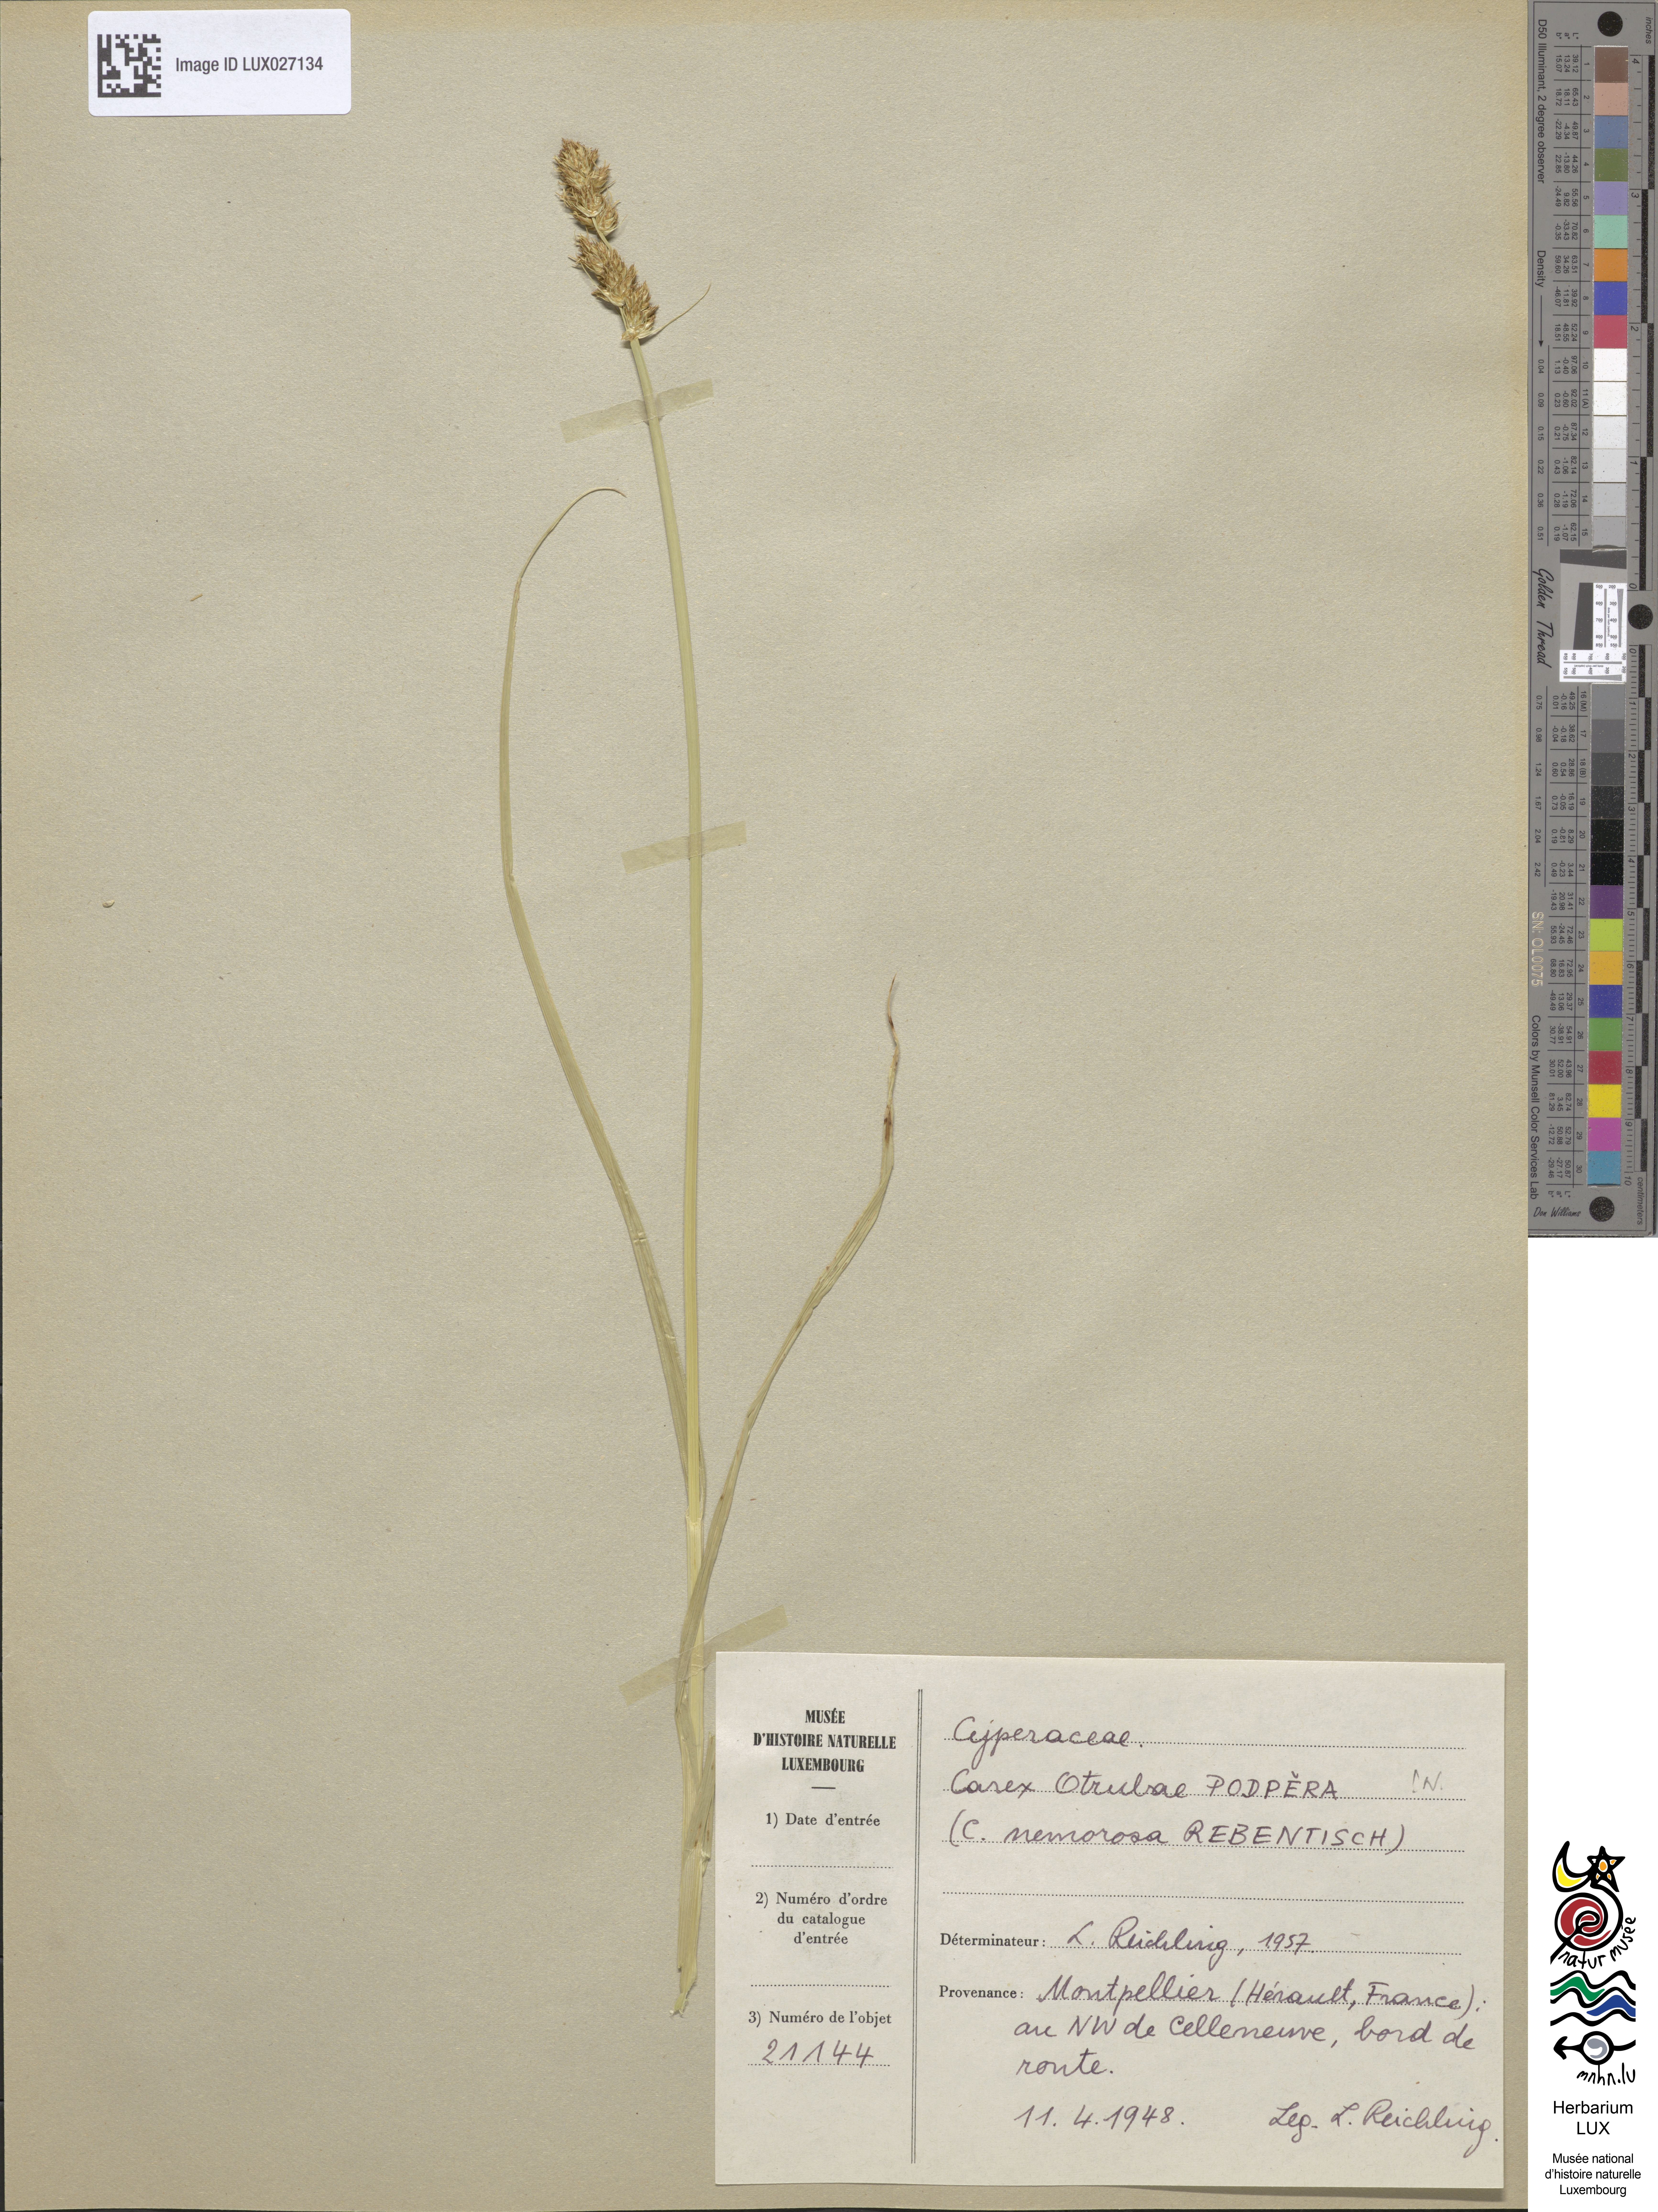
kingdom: Plantae
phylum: Tracheophyta
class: Liliopsida
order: Poales
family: Cyperaceae
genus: Carex
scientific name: Carex otrubae
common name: False fox-sedge
